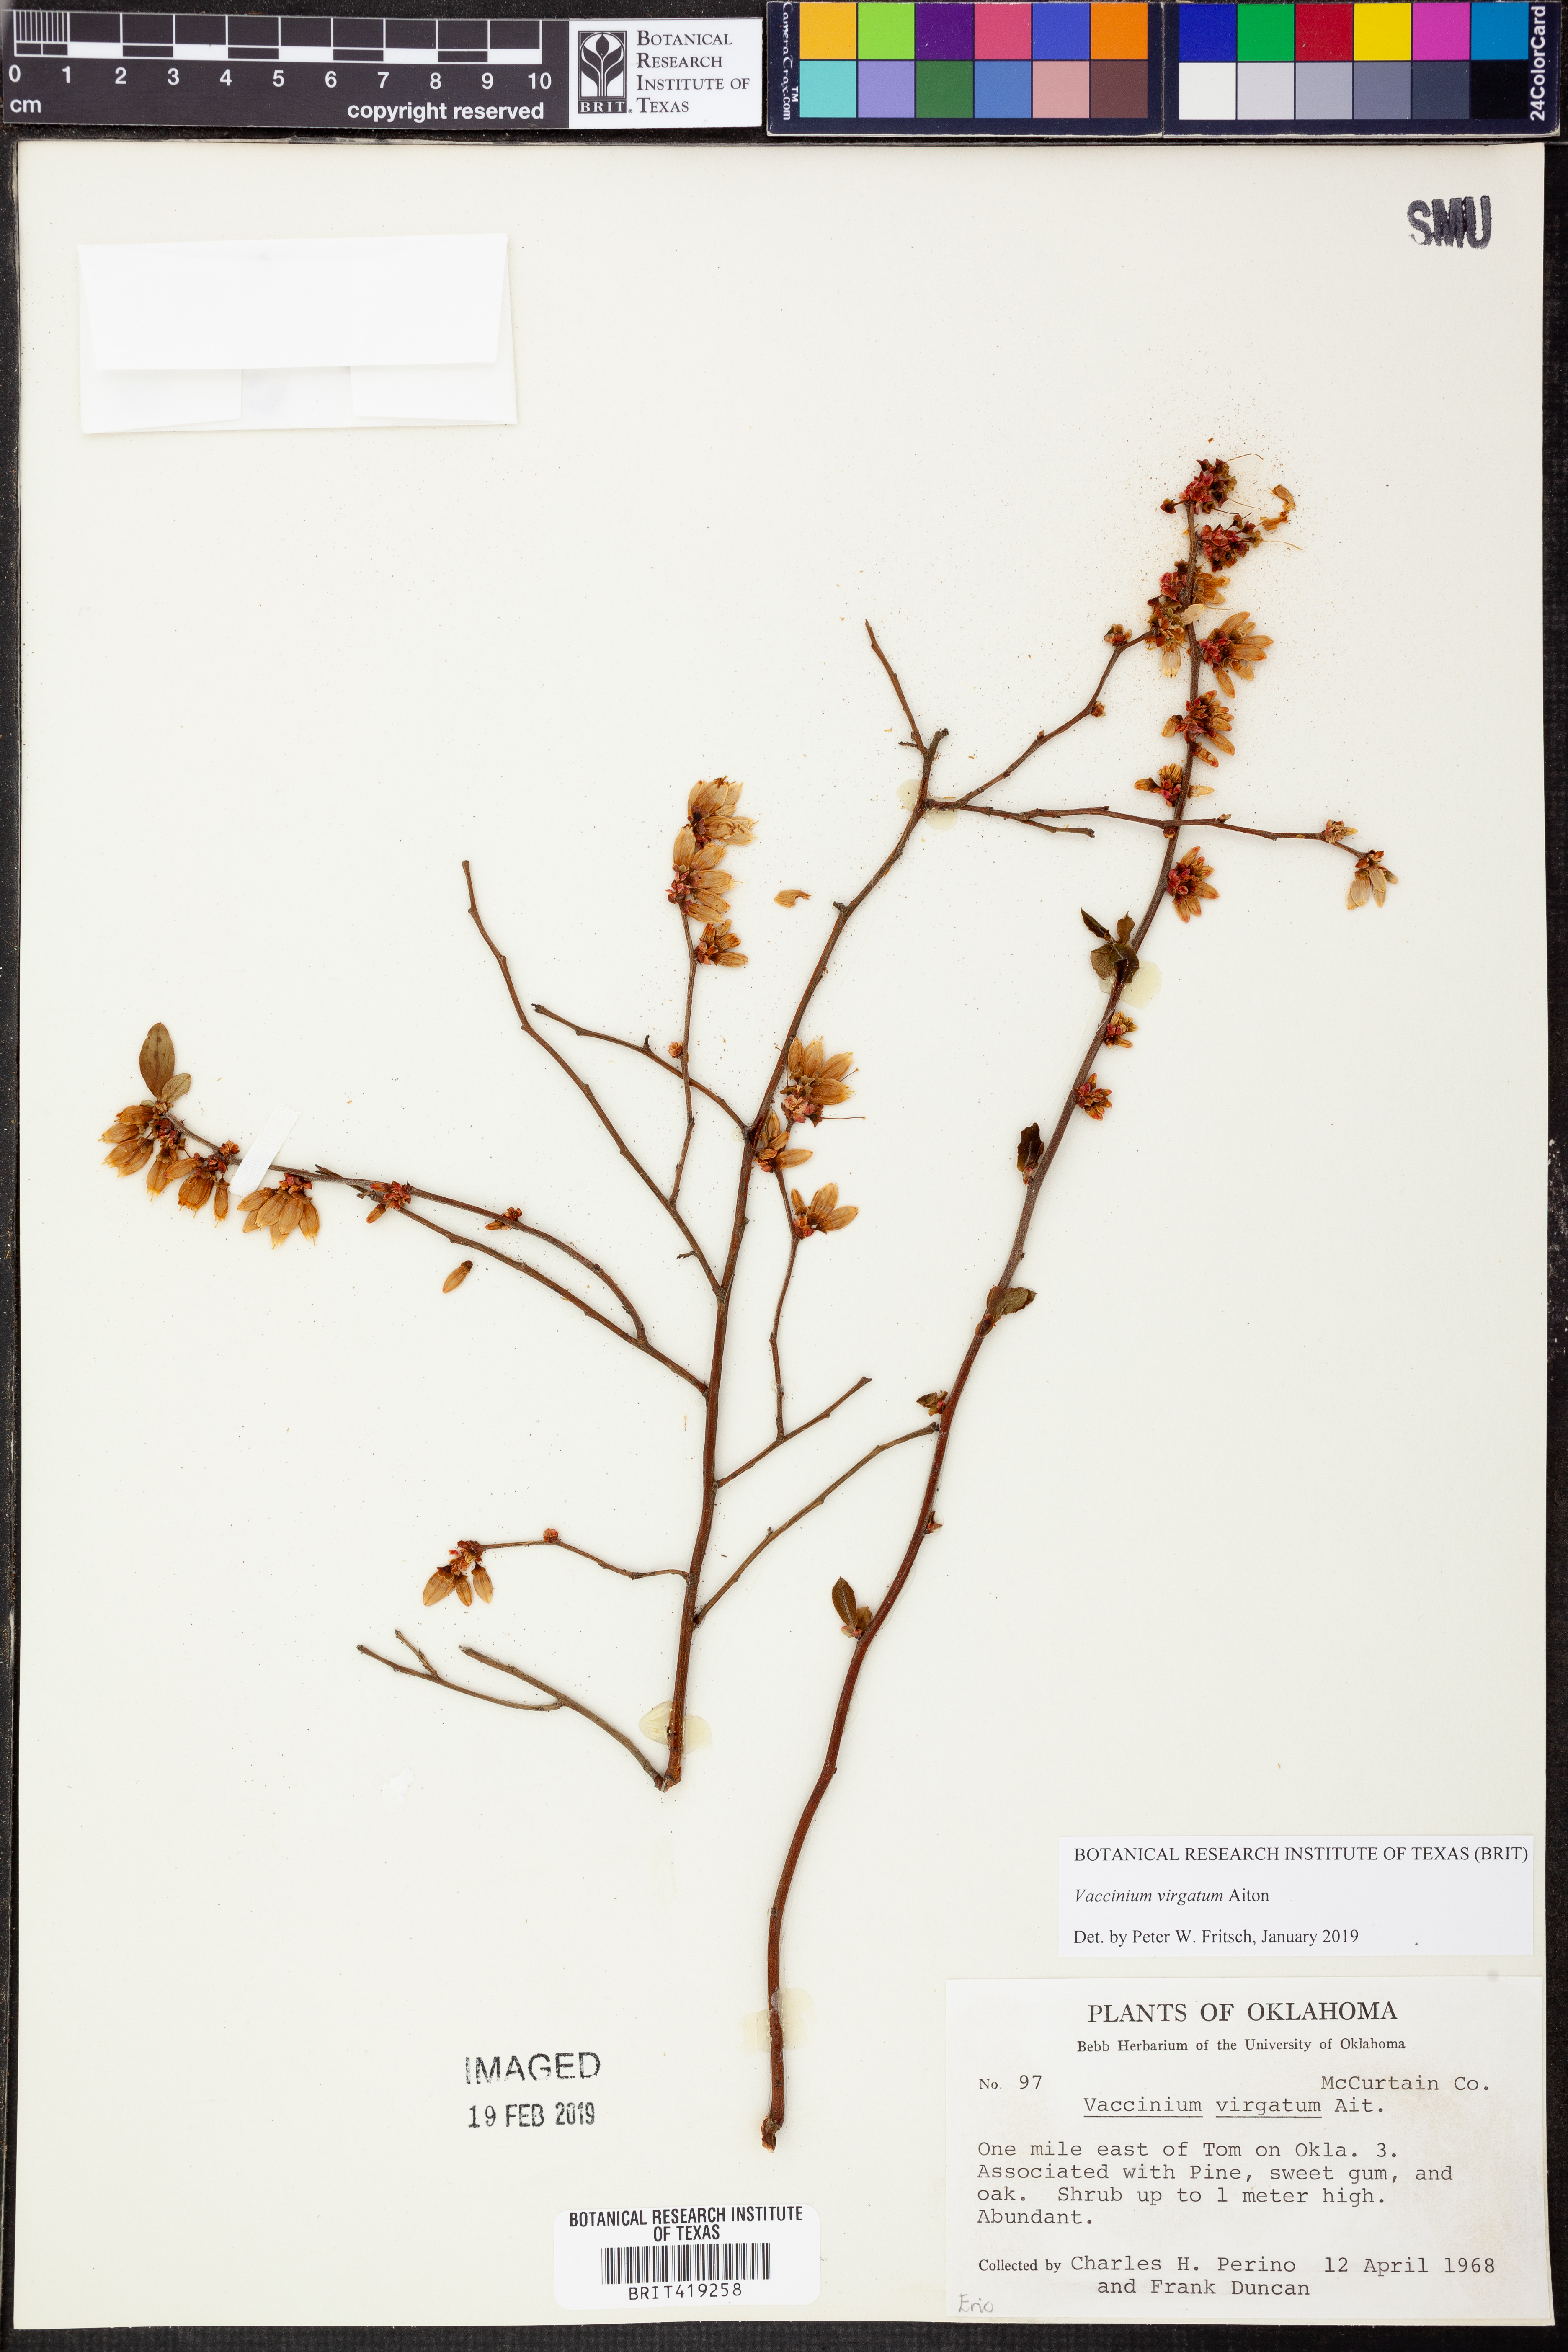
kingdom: Plantae
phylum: Tracheophyta
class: Magnoliopsida
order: Ericales
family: Ericaceae
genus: Vaccinium
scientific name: Vaccinium corymbosum
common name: Blueberry
